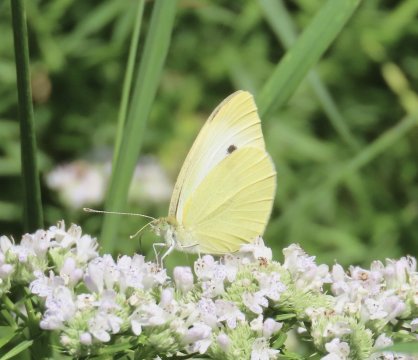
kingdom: Animalia
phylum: Arthropoda
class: Insecta
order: Lepidoptera
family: Pieridae
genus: Pieris
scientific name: Pieris rapae
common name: Cabbage White
